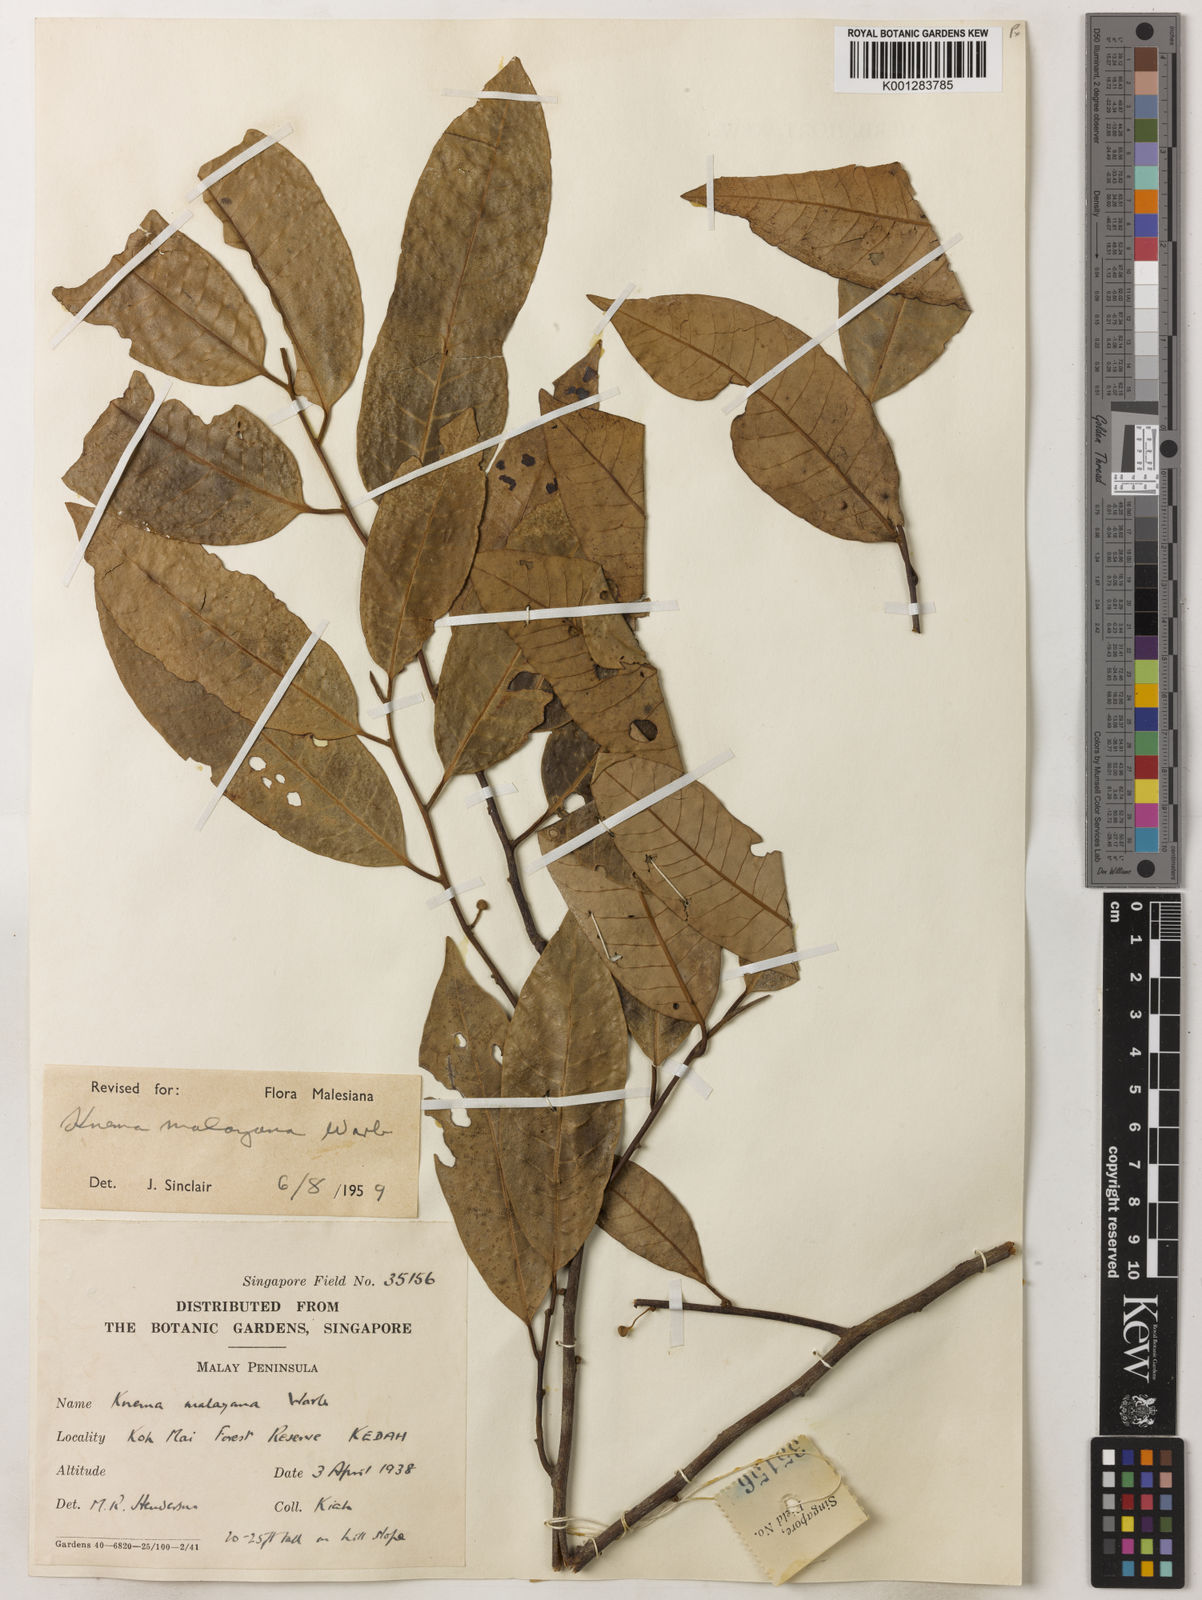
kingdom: Plantae
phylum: Tracheophyta
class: Magnoliopsida
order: Magnoliales
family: Myristicaceae
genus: Knema
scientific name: Knema malayana
